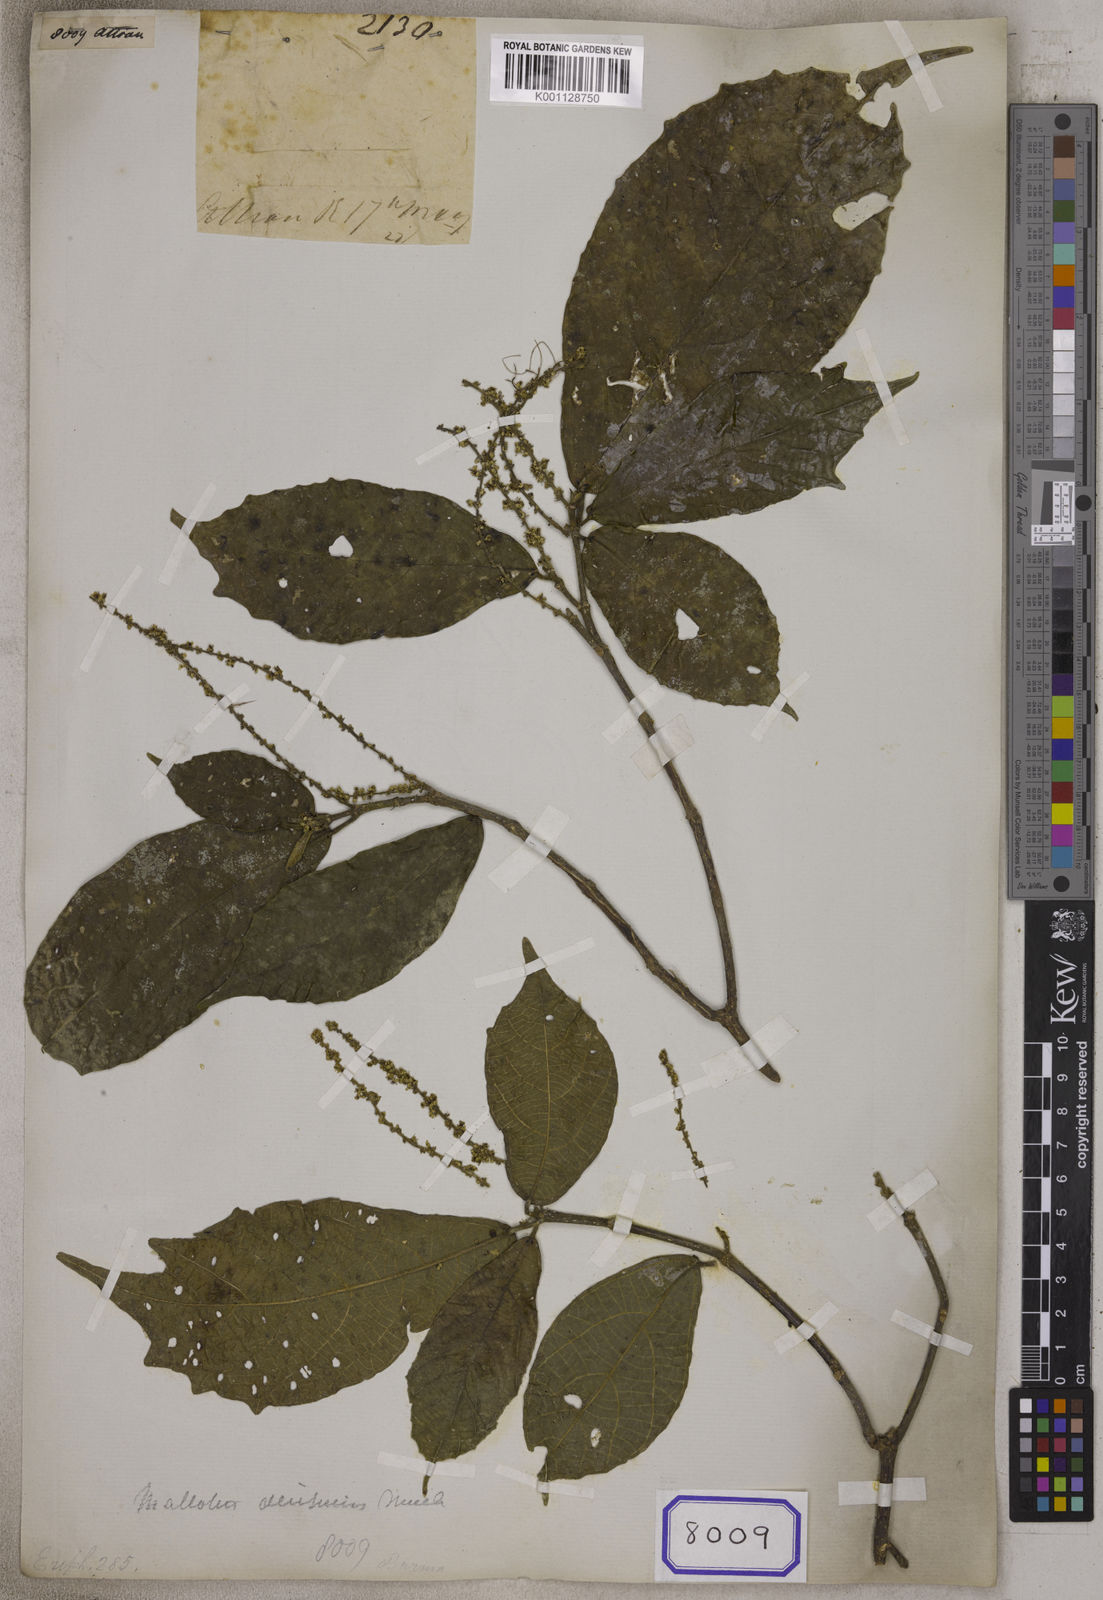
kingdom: Plantae
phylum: Tracheophyta
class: Magnoliopsida
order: Malpighiales
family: Euphorbiaceae
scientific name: Euphorbiaceae
